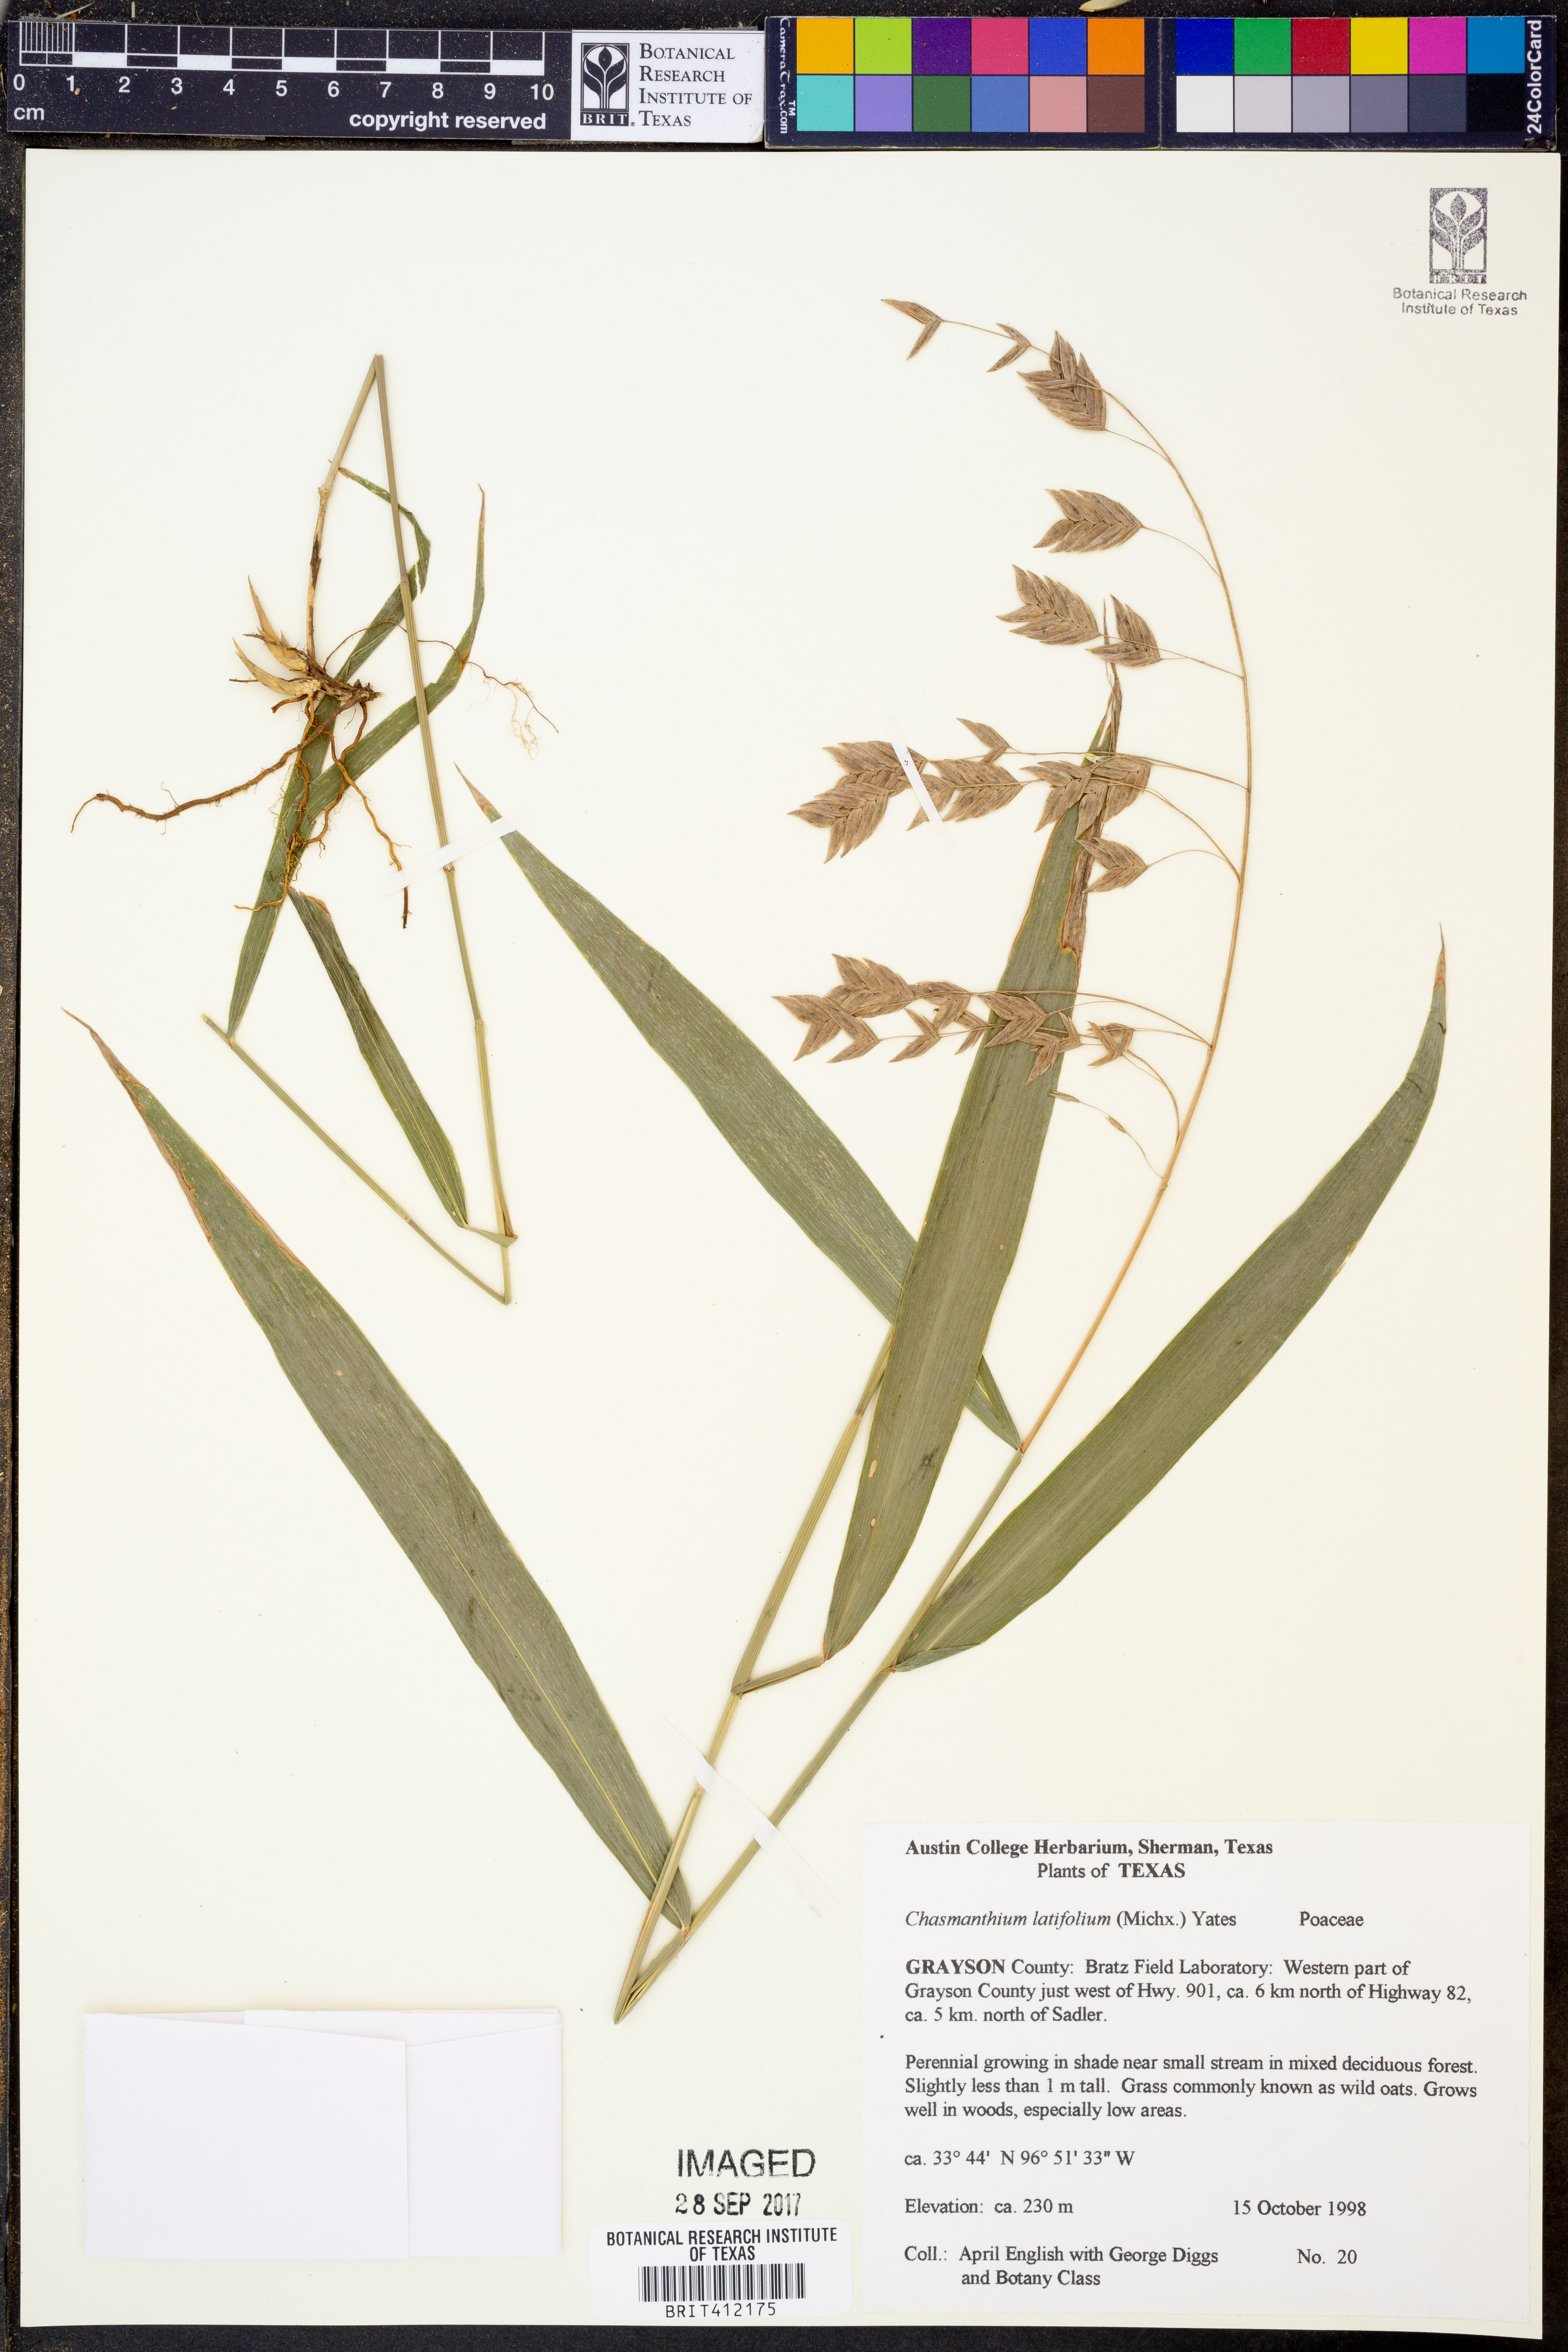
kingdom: Plantae
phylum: Tracheophyta
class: Liliopsida
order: Poales
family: Poaceae
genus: Chasmanthium
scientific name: Chasmanthium latifolium
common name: Broad-leaved chasmanthium
